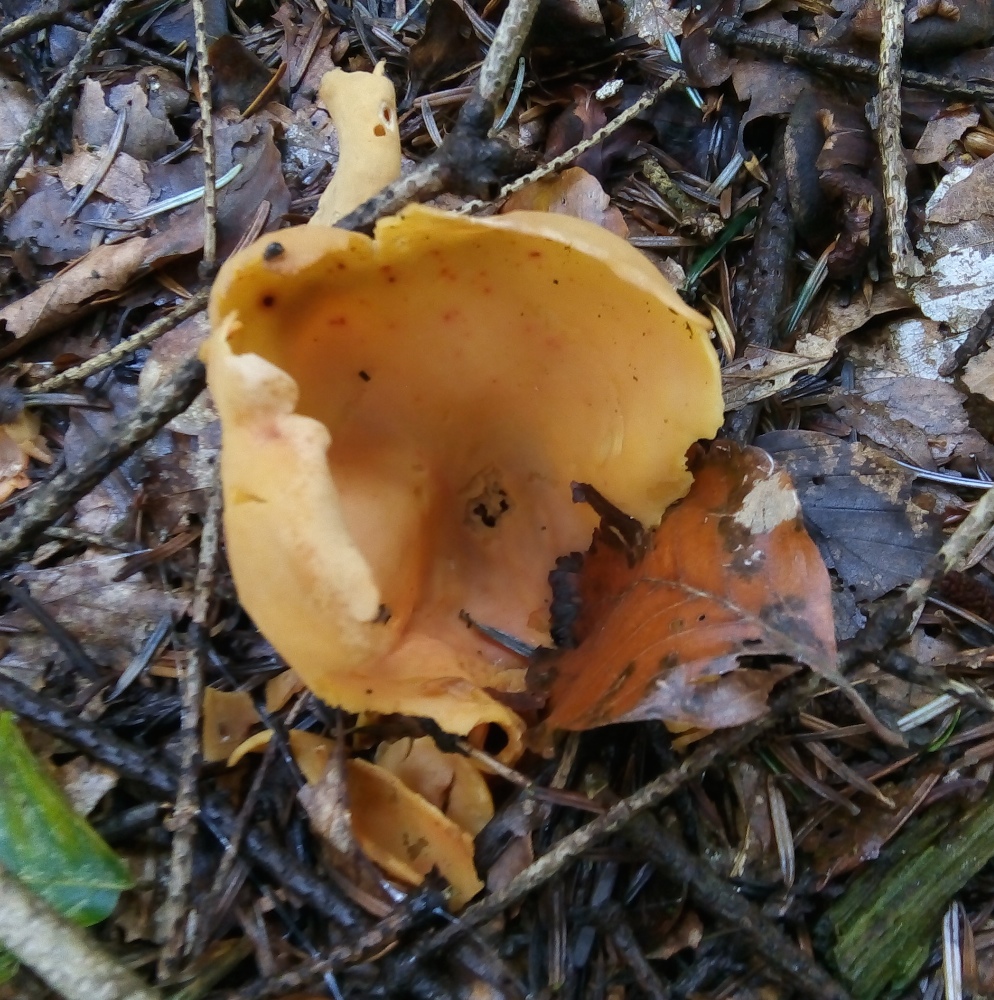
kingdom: Fungi
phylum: Ascomycota
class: Pezizomycetes
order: Pezizales
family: Otideaceae
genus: Otidea
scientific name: Otidea onotica
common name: æsel-ørebæger
